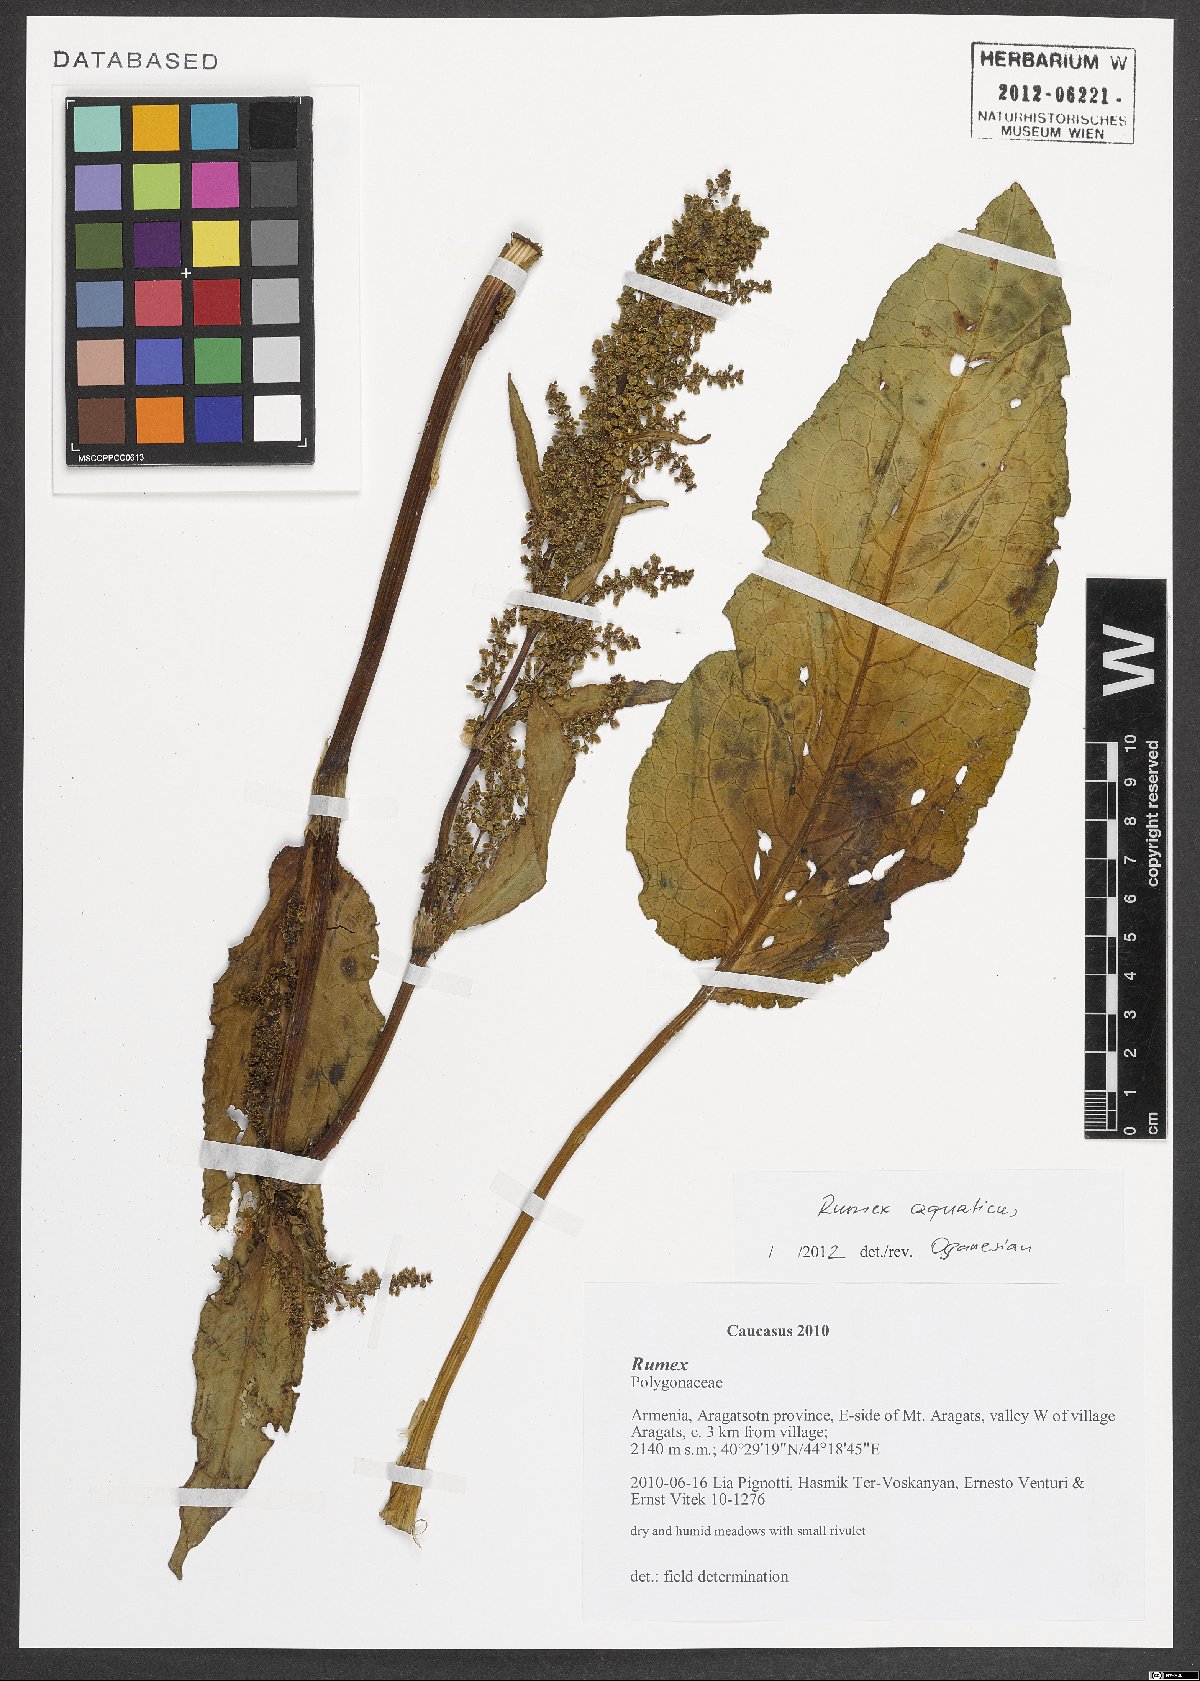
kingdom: Plantae
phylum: Tracheophyta
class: Magnoliopsida
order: Caryophyllales
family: Polygonaceae
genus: Rumex
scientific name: Rumex aquaticus
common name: Scottish dock
